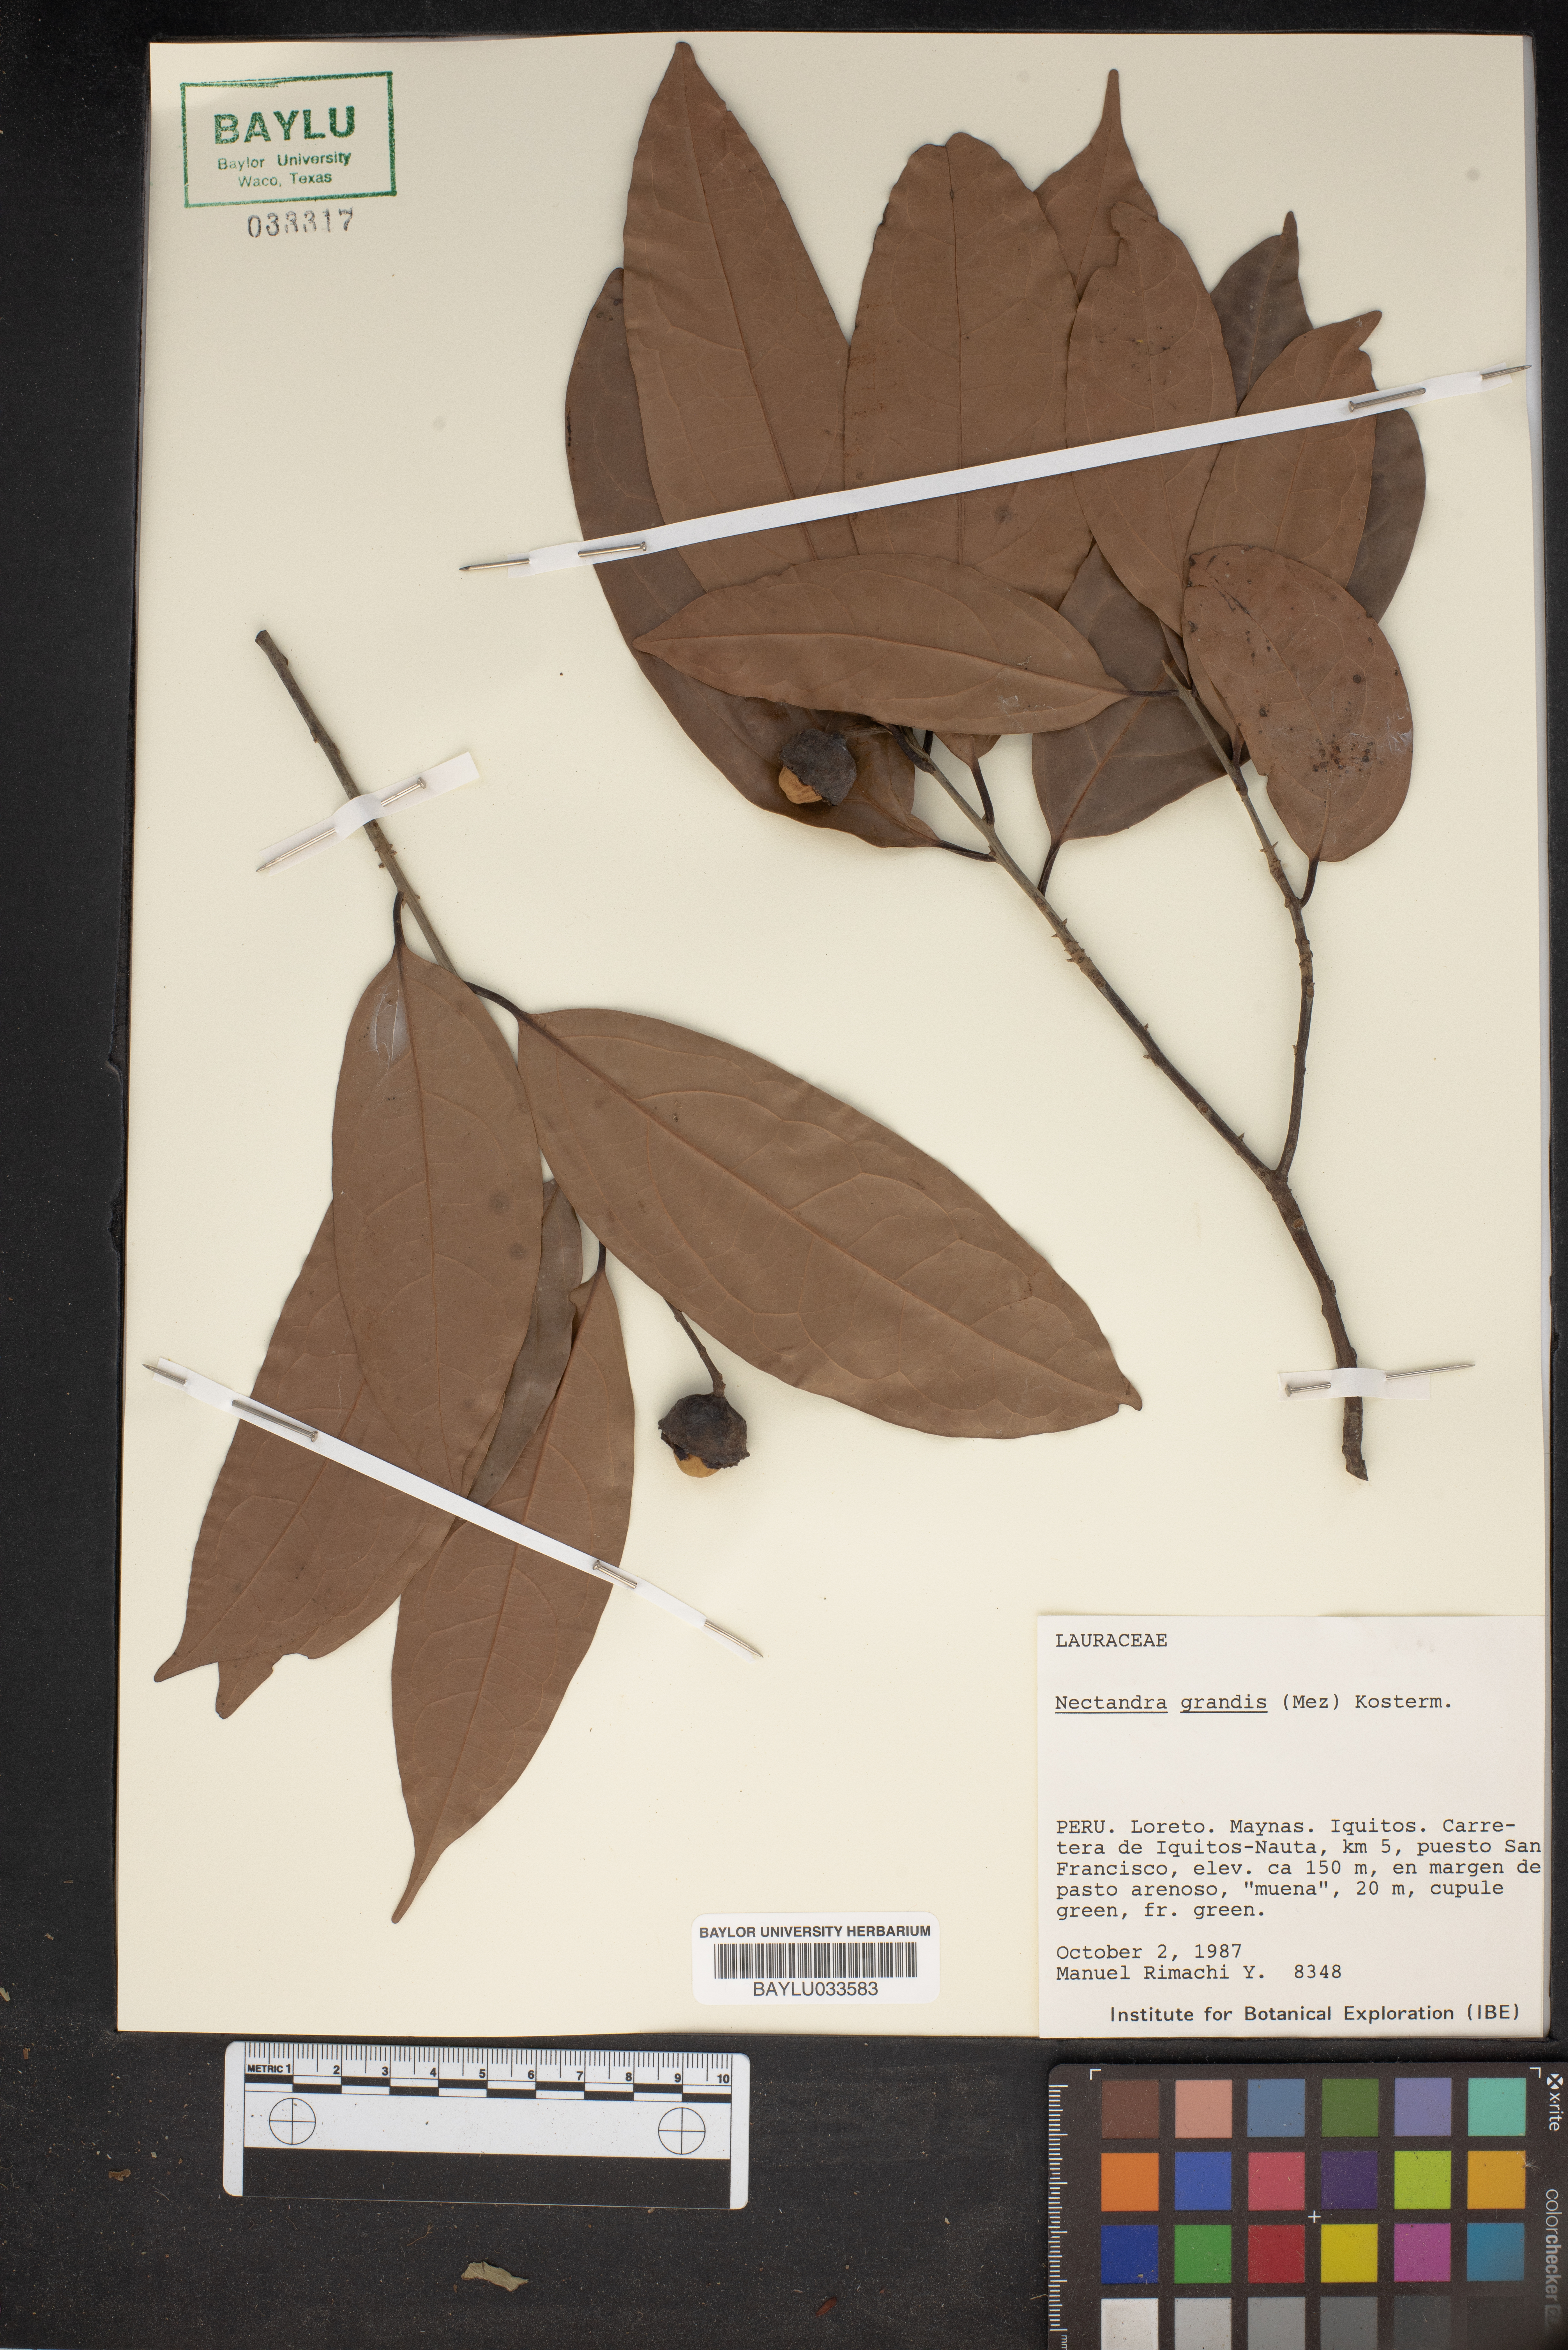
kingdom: Plantae
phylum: Tracheophyta
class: Magnoliopsida
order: Laurales
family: Lauraceae
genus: Rhodostemonodaphne
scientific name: Rhodostemonodaphne grandis
